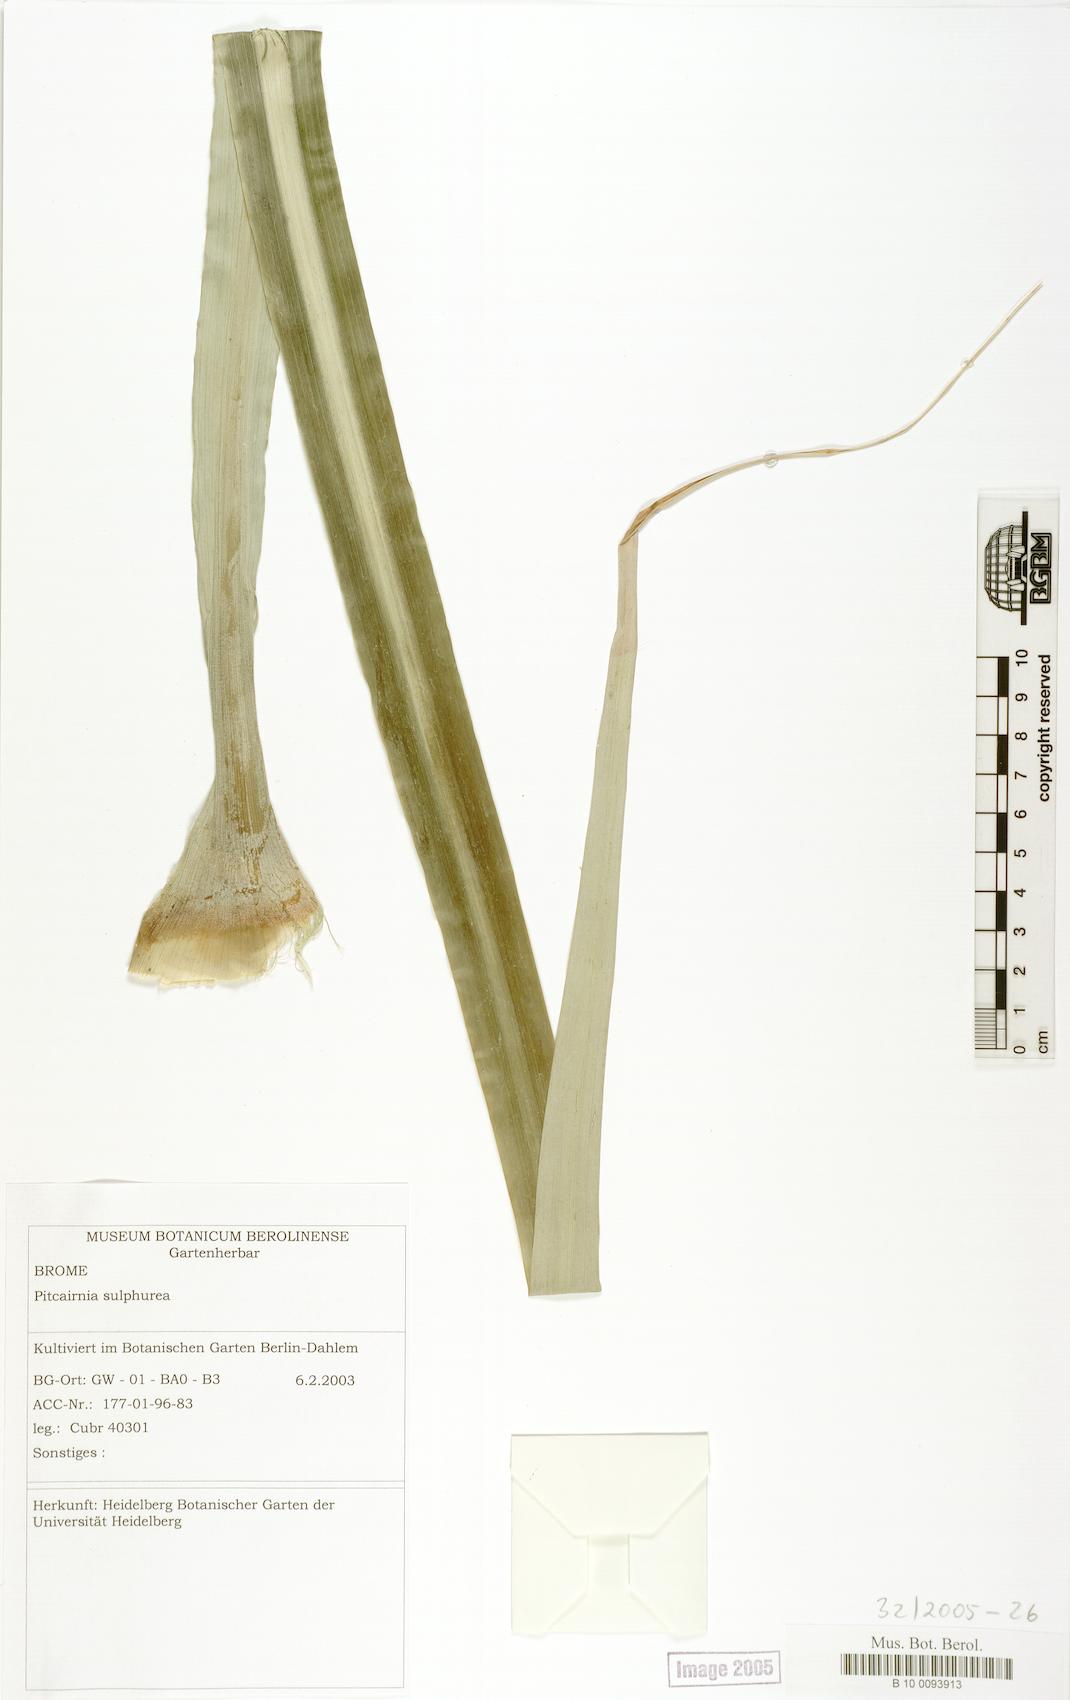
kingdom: Plantae
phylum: Tracheophyta
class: Liliopsida
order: Poales
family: Bromeliaceae
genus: Pitcairnia
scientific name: Pitcairnia sulphurea
